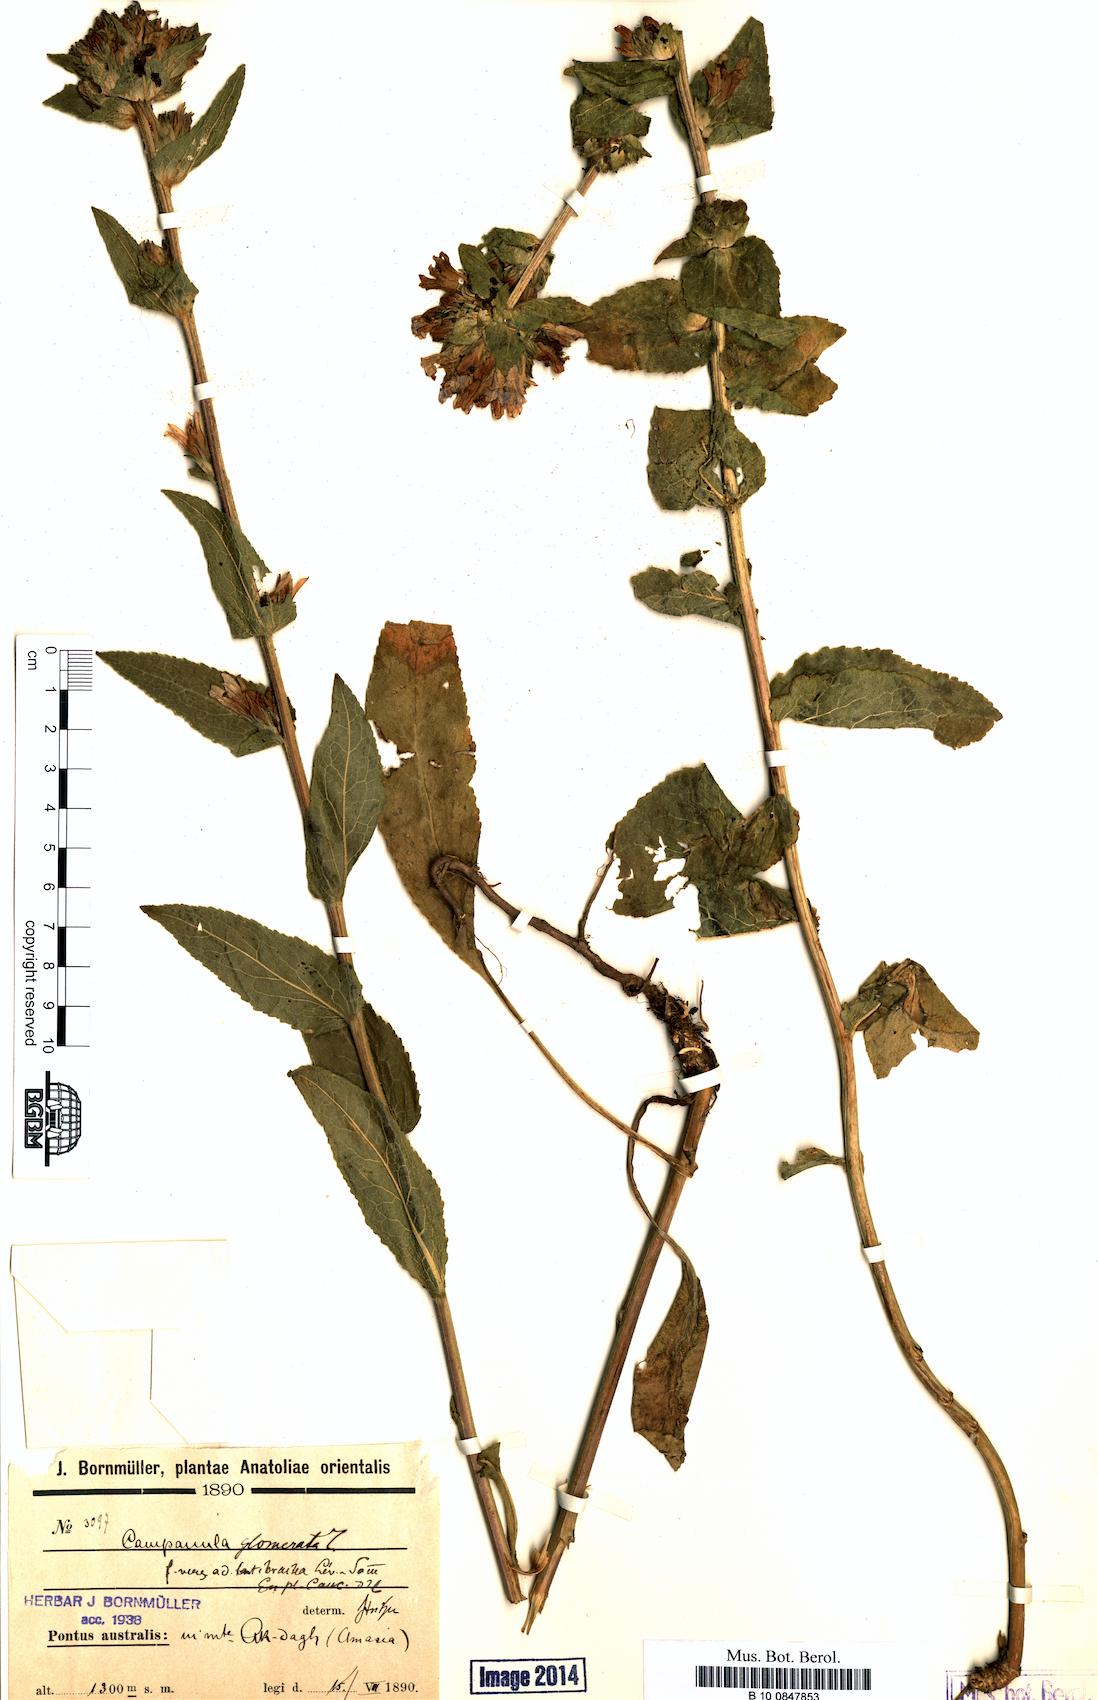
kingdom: Plantae
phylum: Tracheophyta
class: Magnoliopsida
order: Asterales
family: Campanulaceae
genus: Campanula
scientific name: Campanula glomerata
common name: Clustered bellflower
